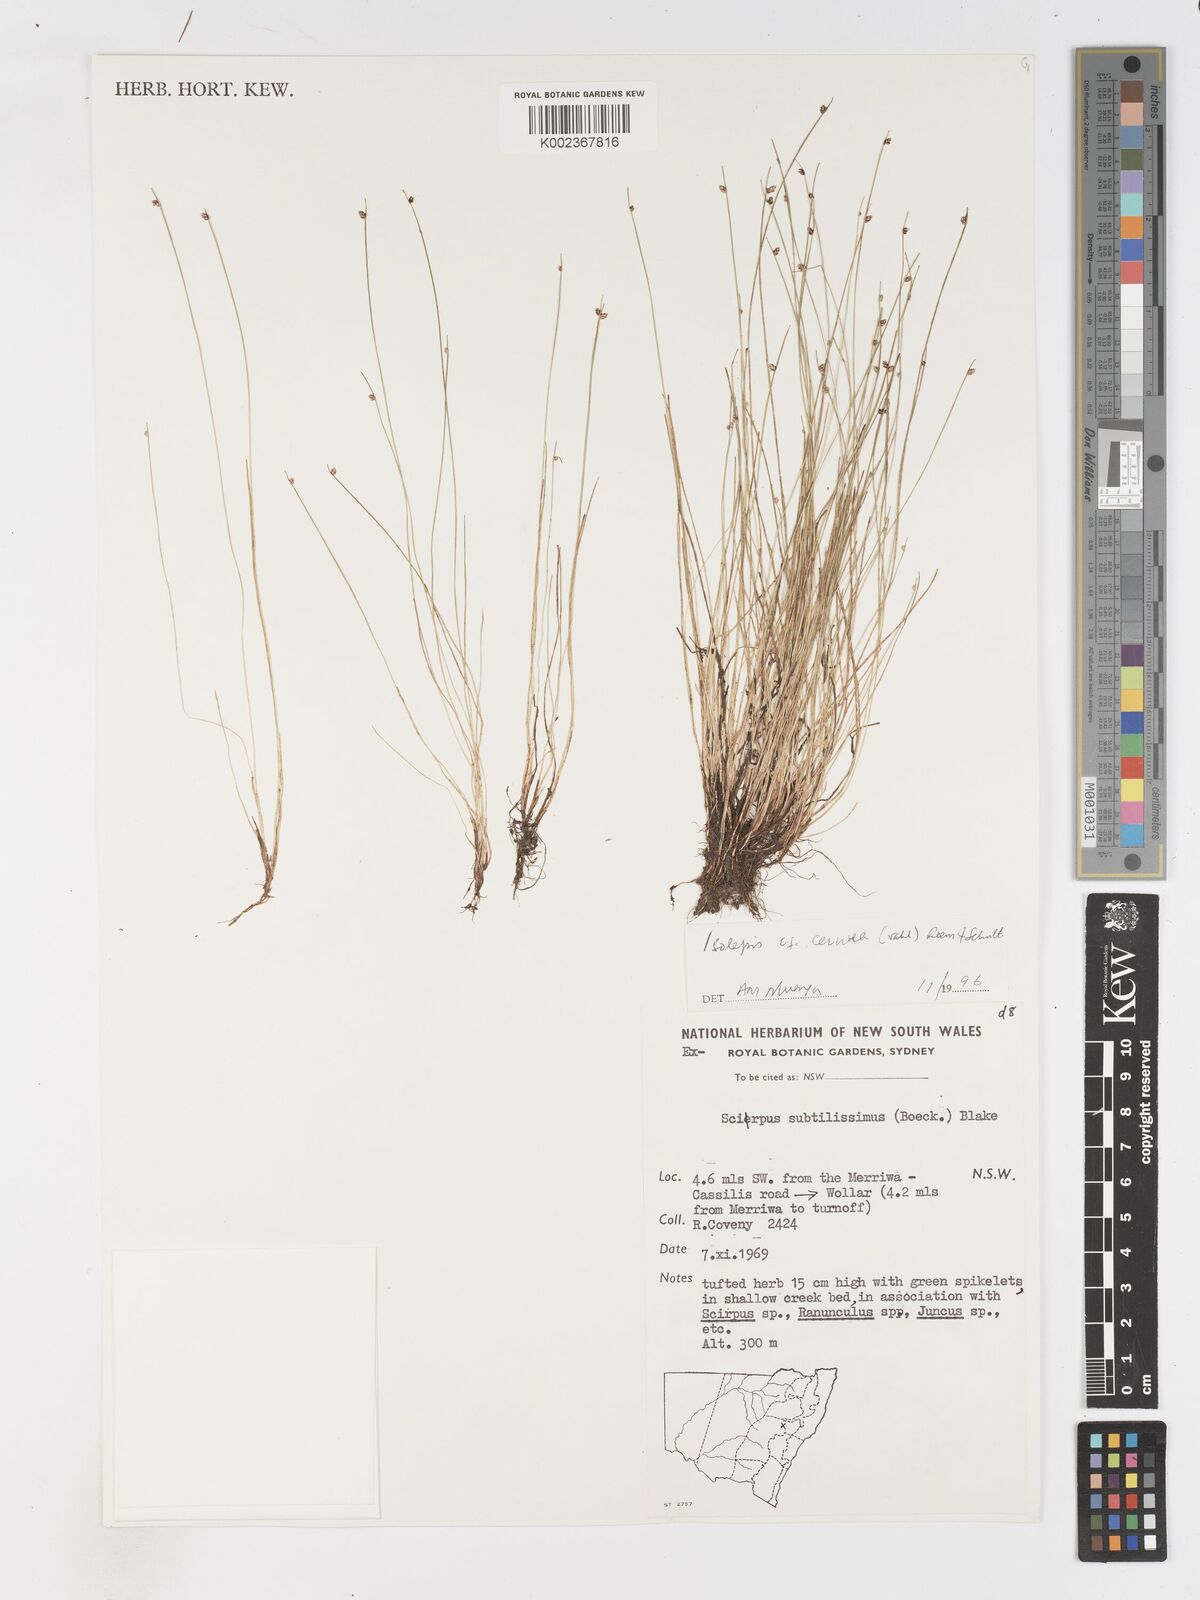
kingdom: Plantae
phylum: Tracheophyta
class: Liliopsida
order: Poales
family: Cyperaceae
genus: Isolepis
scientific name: Isolepis cernua
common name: Slender club-rush
